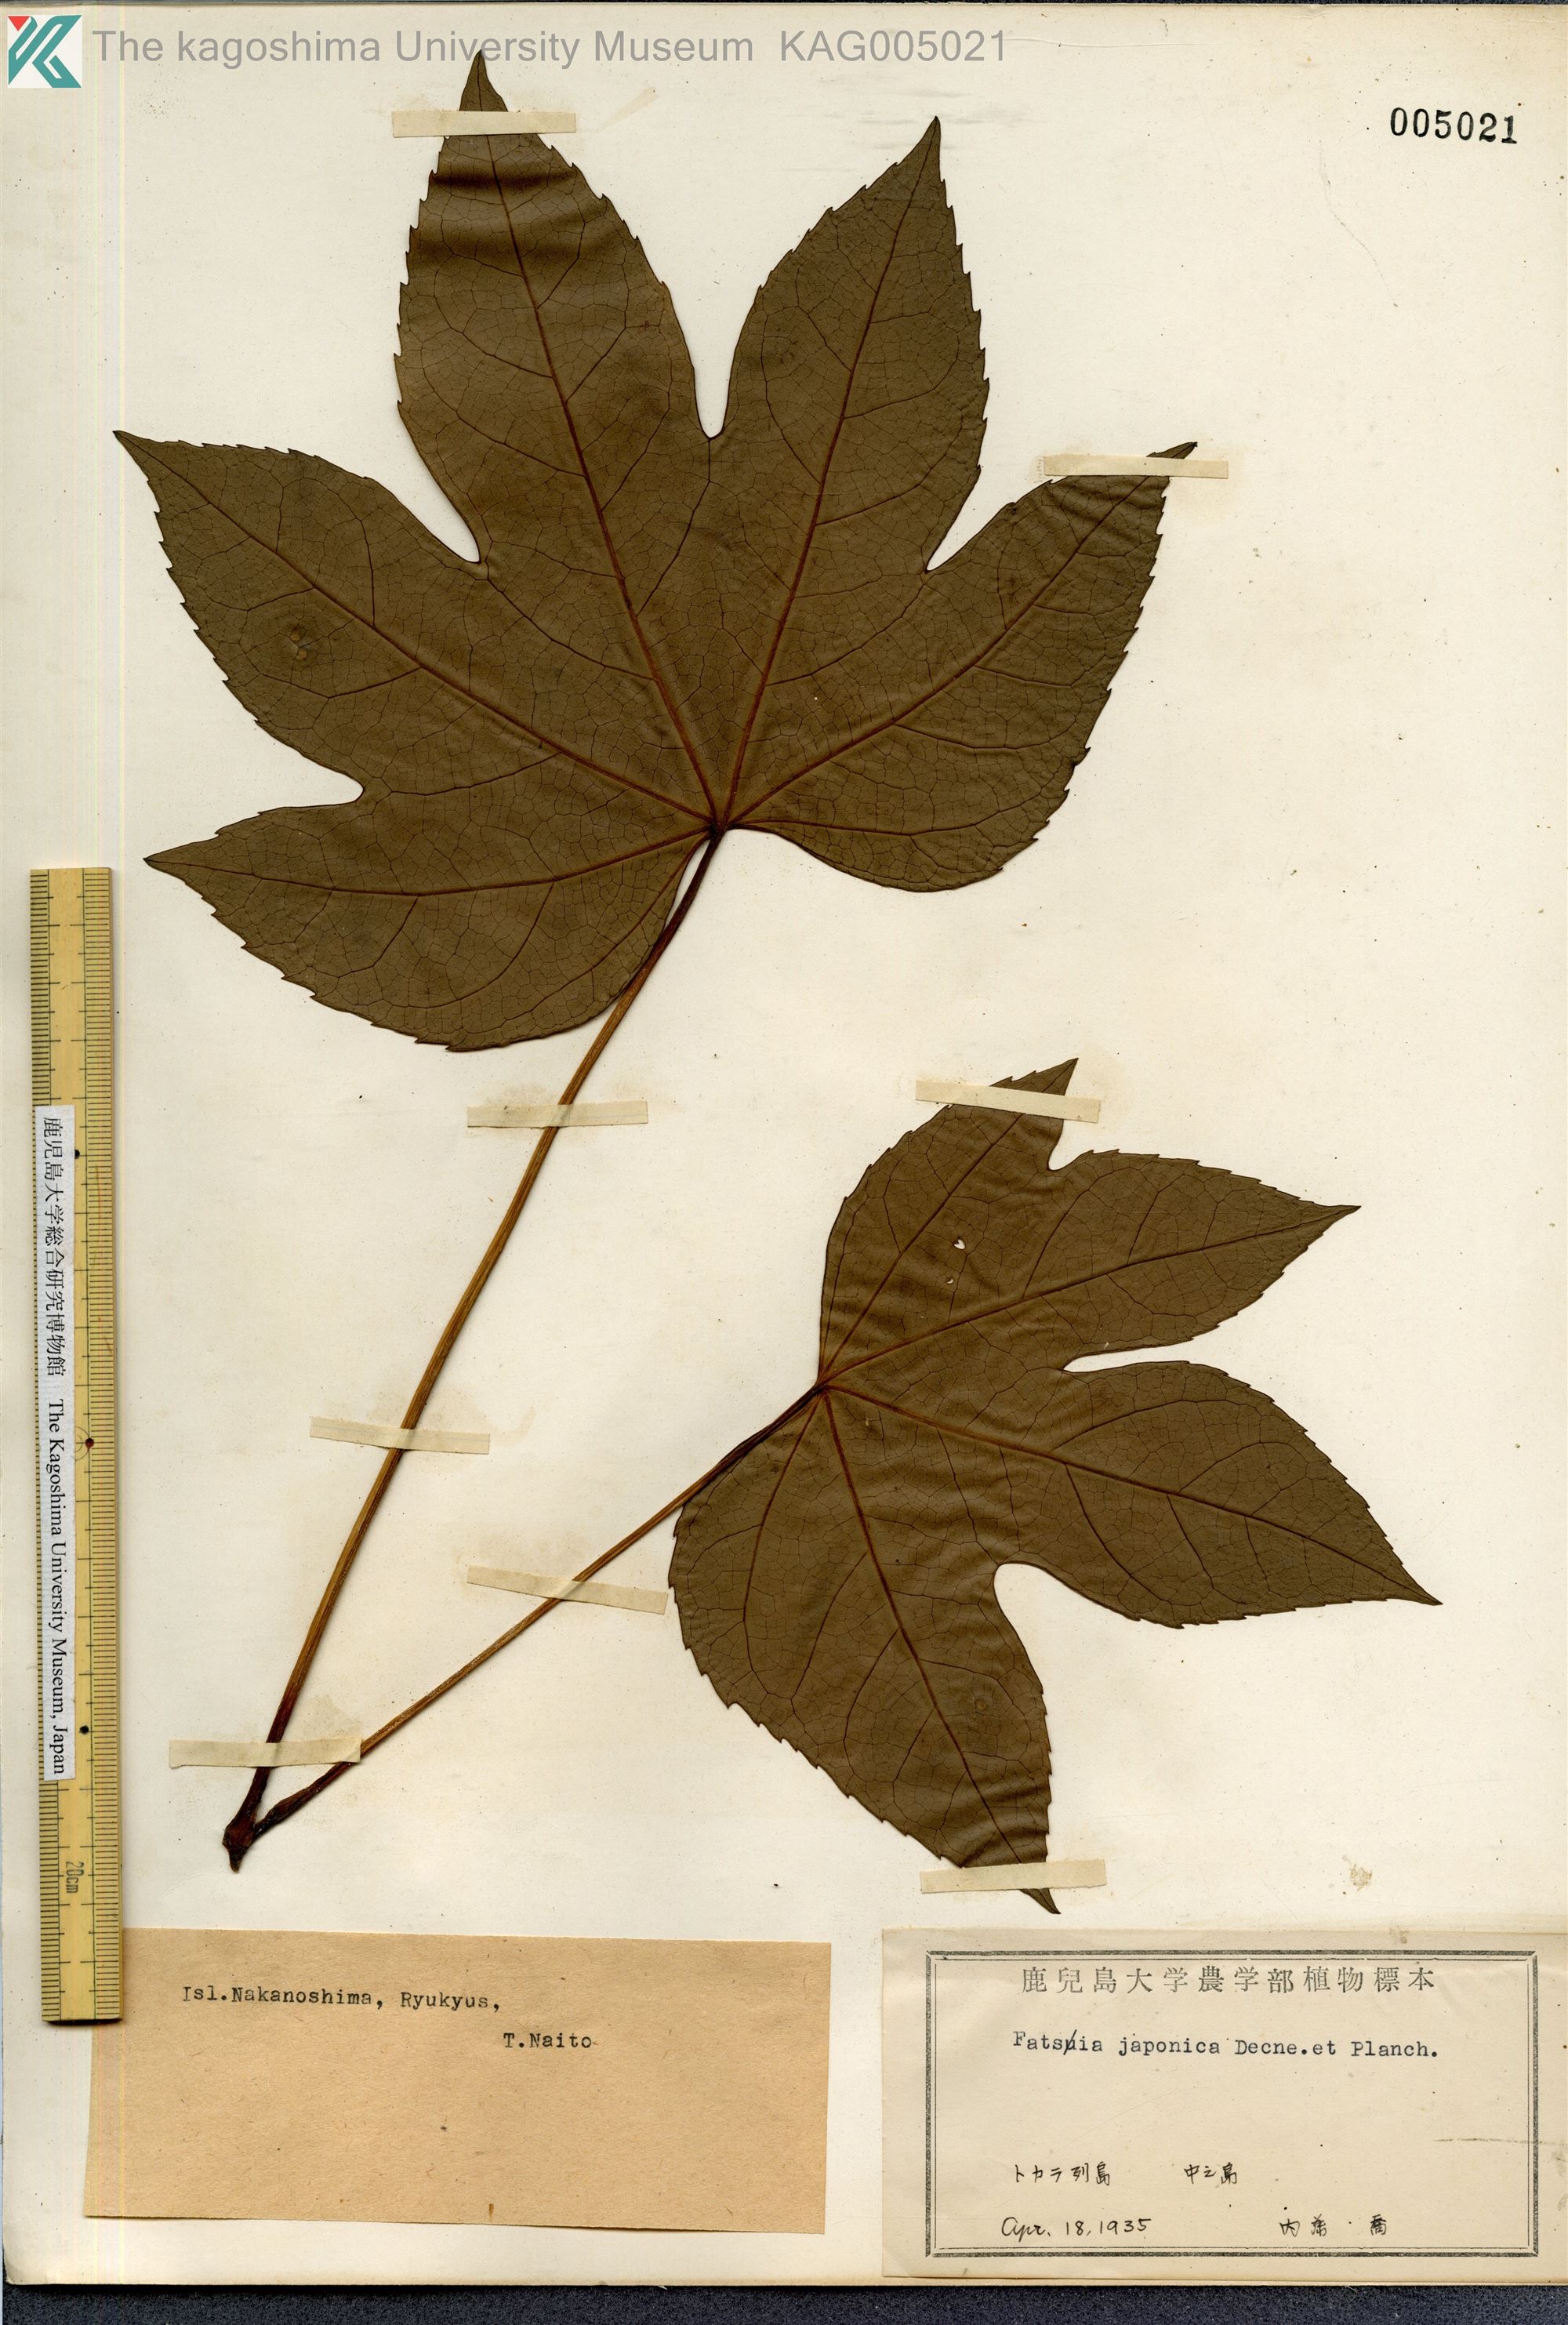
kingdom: Plantae
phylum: Tracheophyta
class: Magnoliopsida
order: Apiales
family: Araliaceae
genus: Fatsia
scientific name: Fatsia japonica
